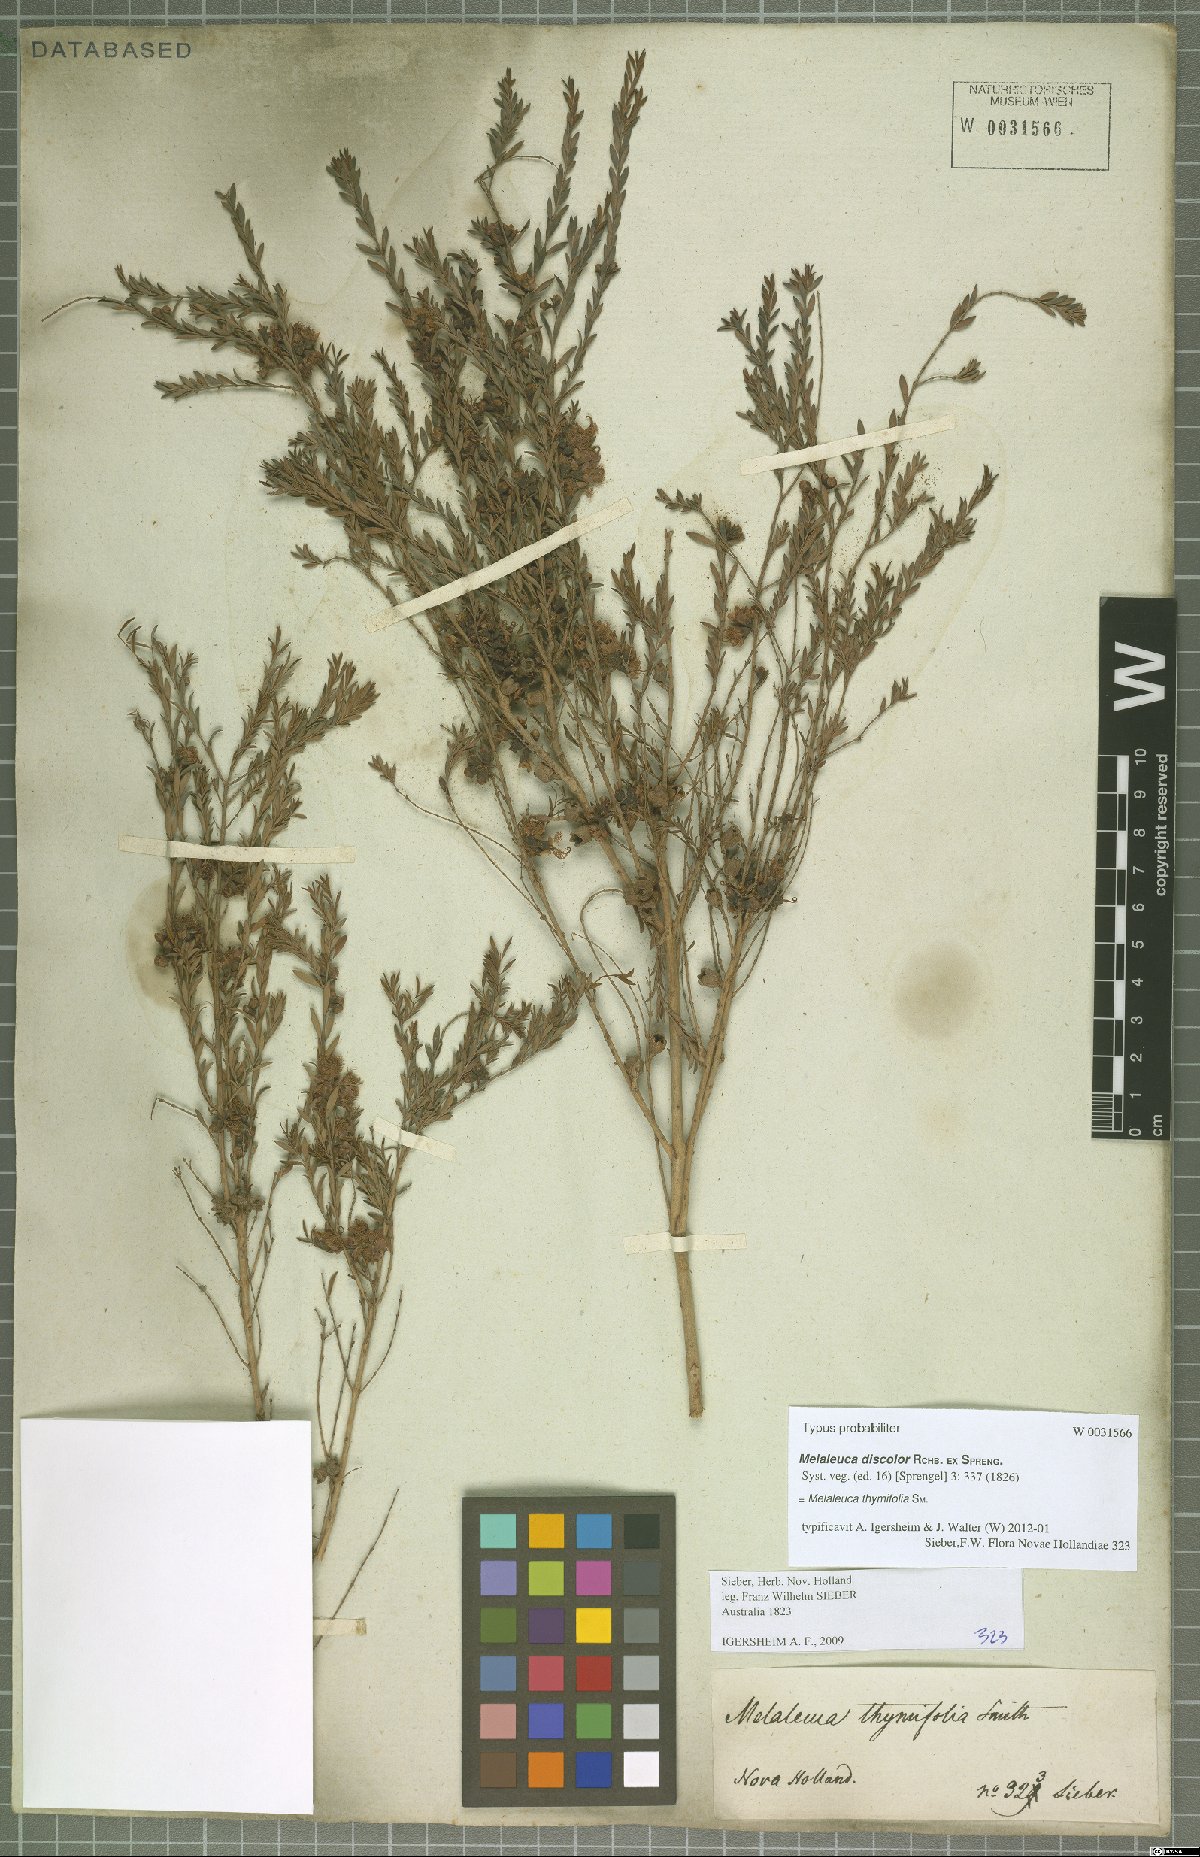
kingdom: Plantae
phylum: Tracheophyta
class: Magnoliopsida
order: Myrtales
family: Myrtaceae
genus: Melaleuca
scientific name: Melaleuca thymifolia
